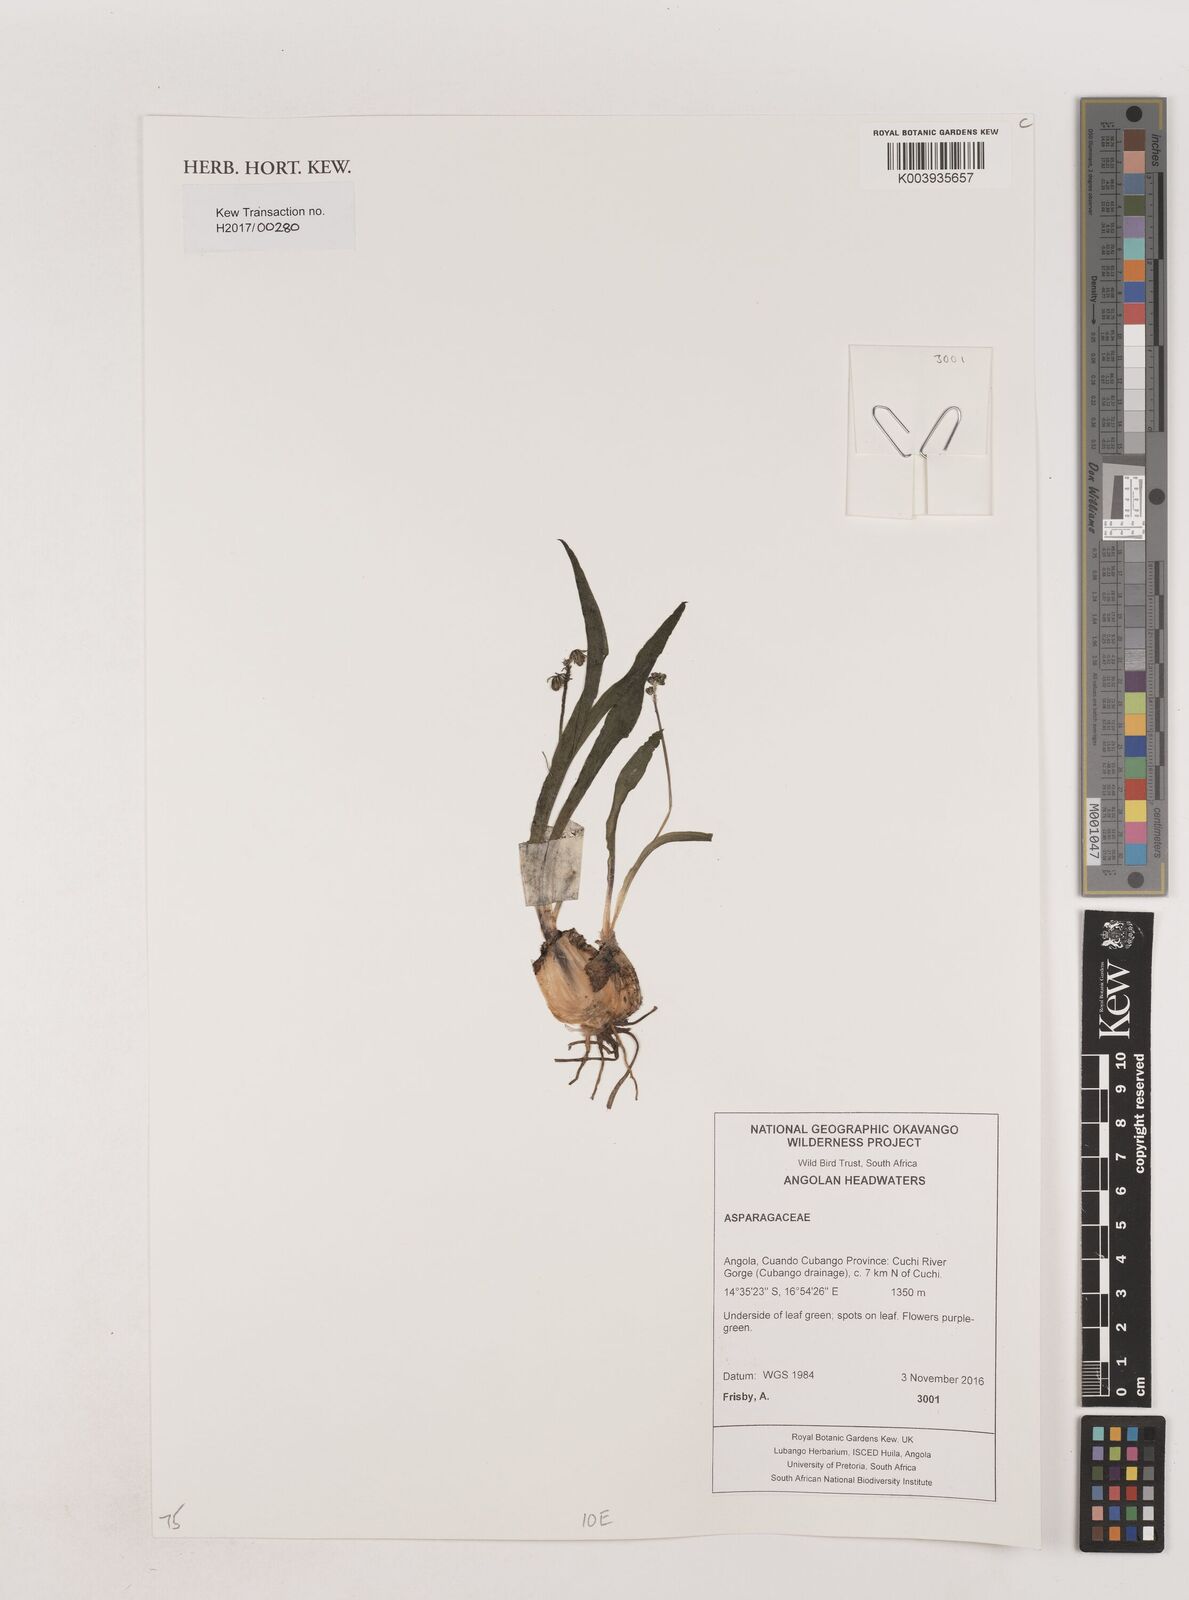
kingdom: Plantae
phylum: Tracheophyta
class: Liliopsida
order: Asparagales
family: Asparagaceae
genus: Chlorophytum
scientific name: Chlorophytum
